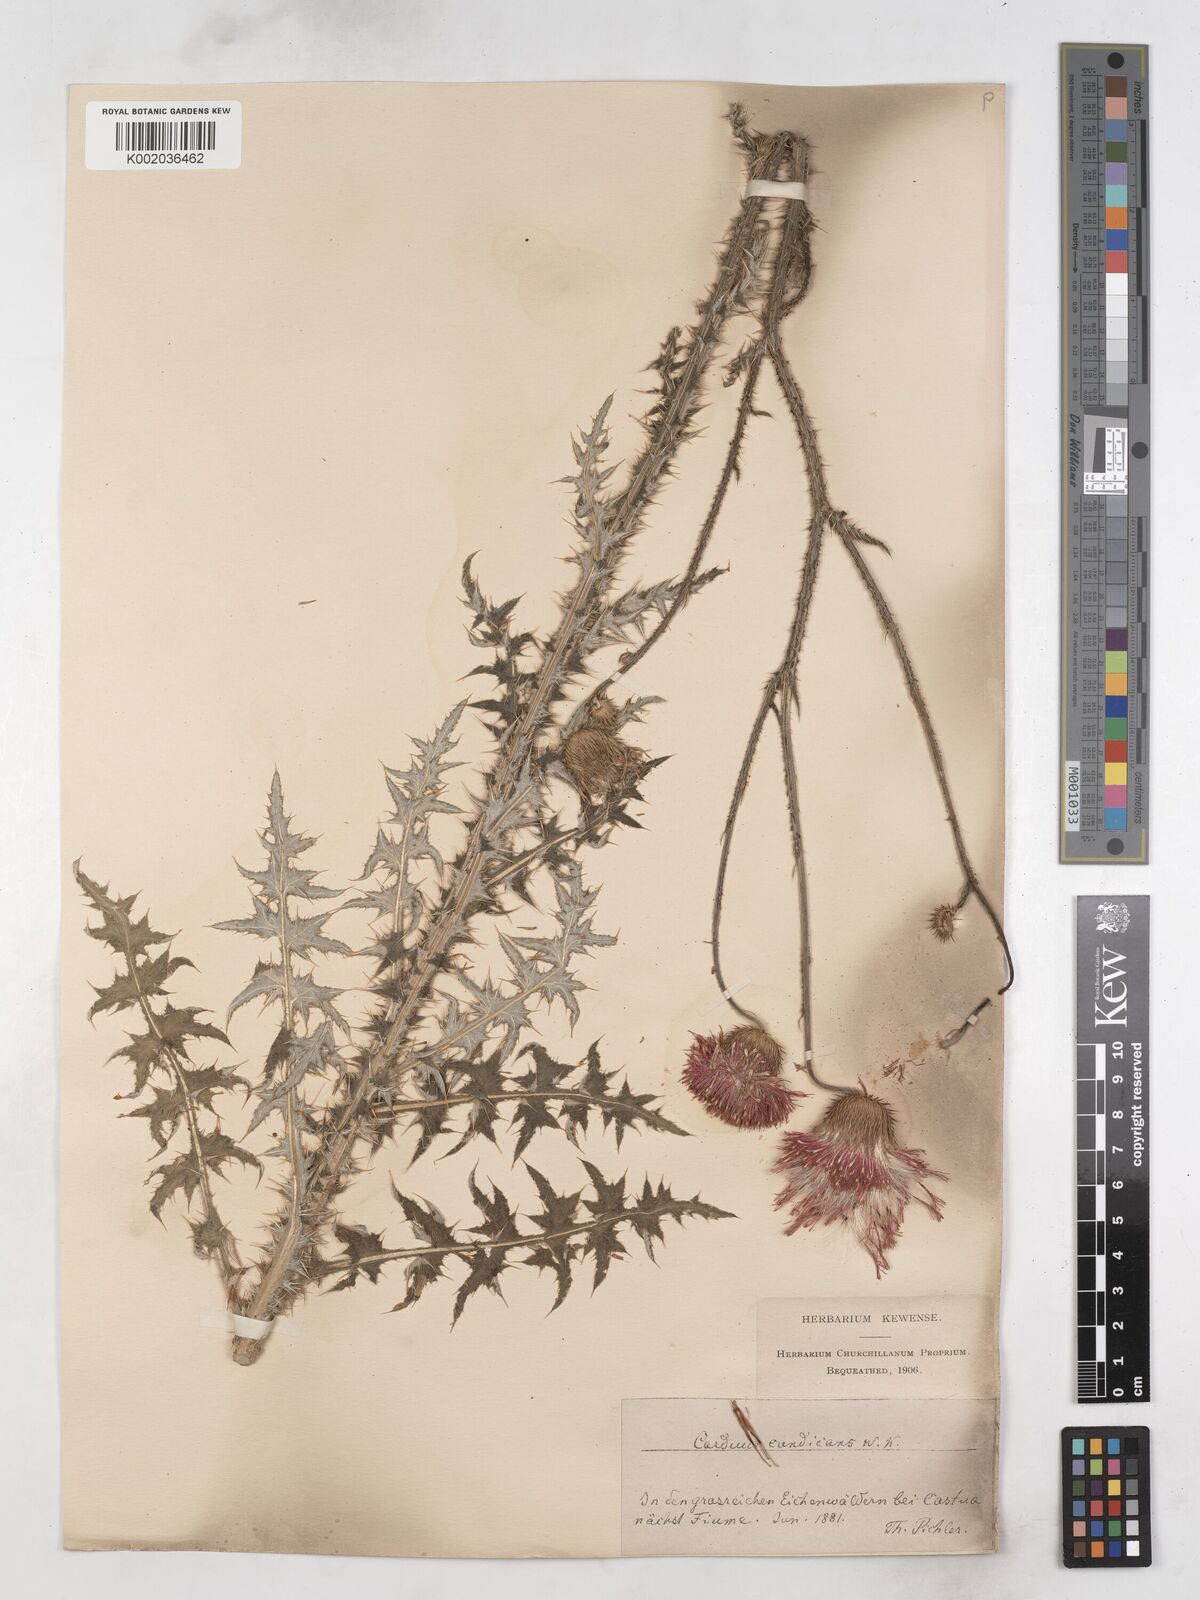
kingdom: Plantae
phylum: Tracheophyta
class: Magnoliopsida
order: Asterales
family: Asteraceae
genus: Carduus
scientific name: Carduus candicans
